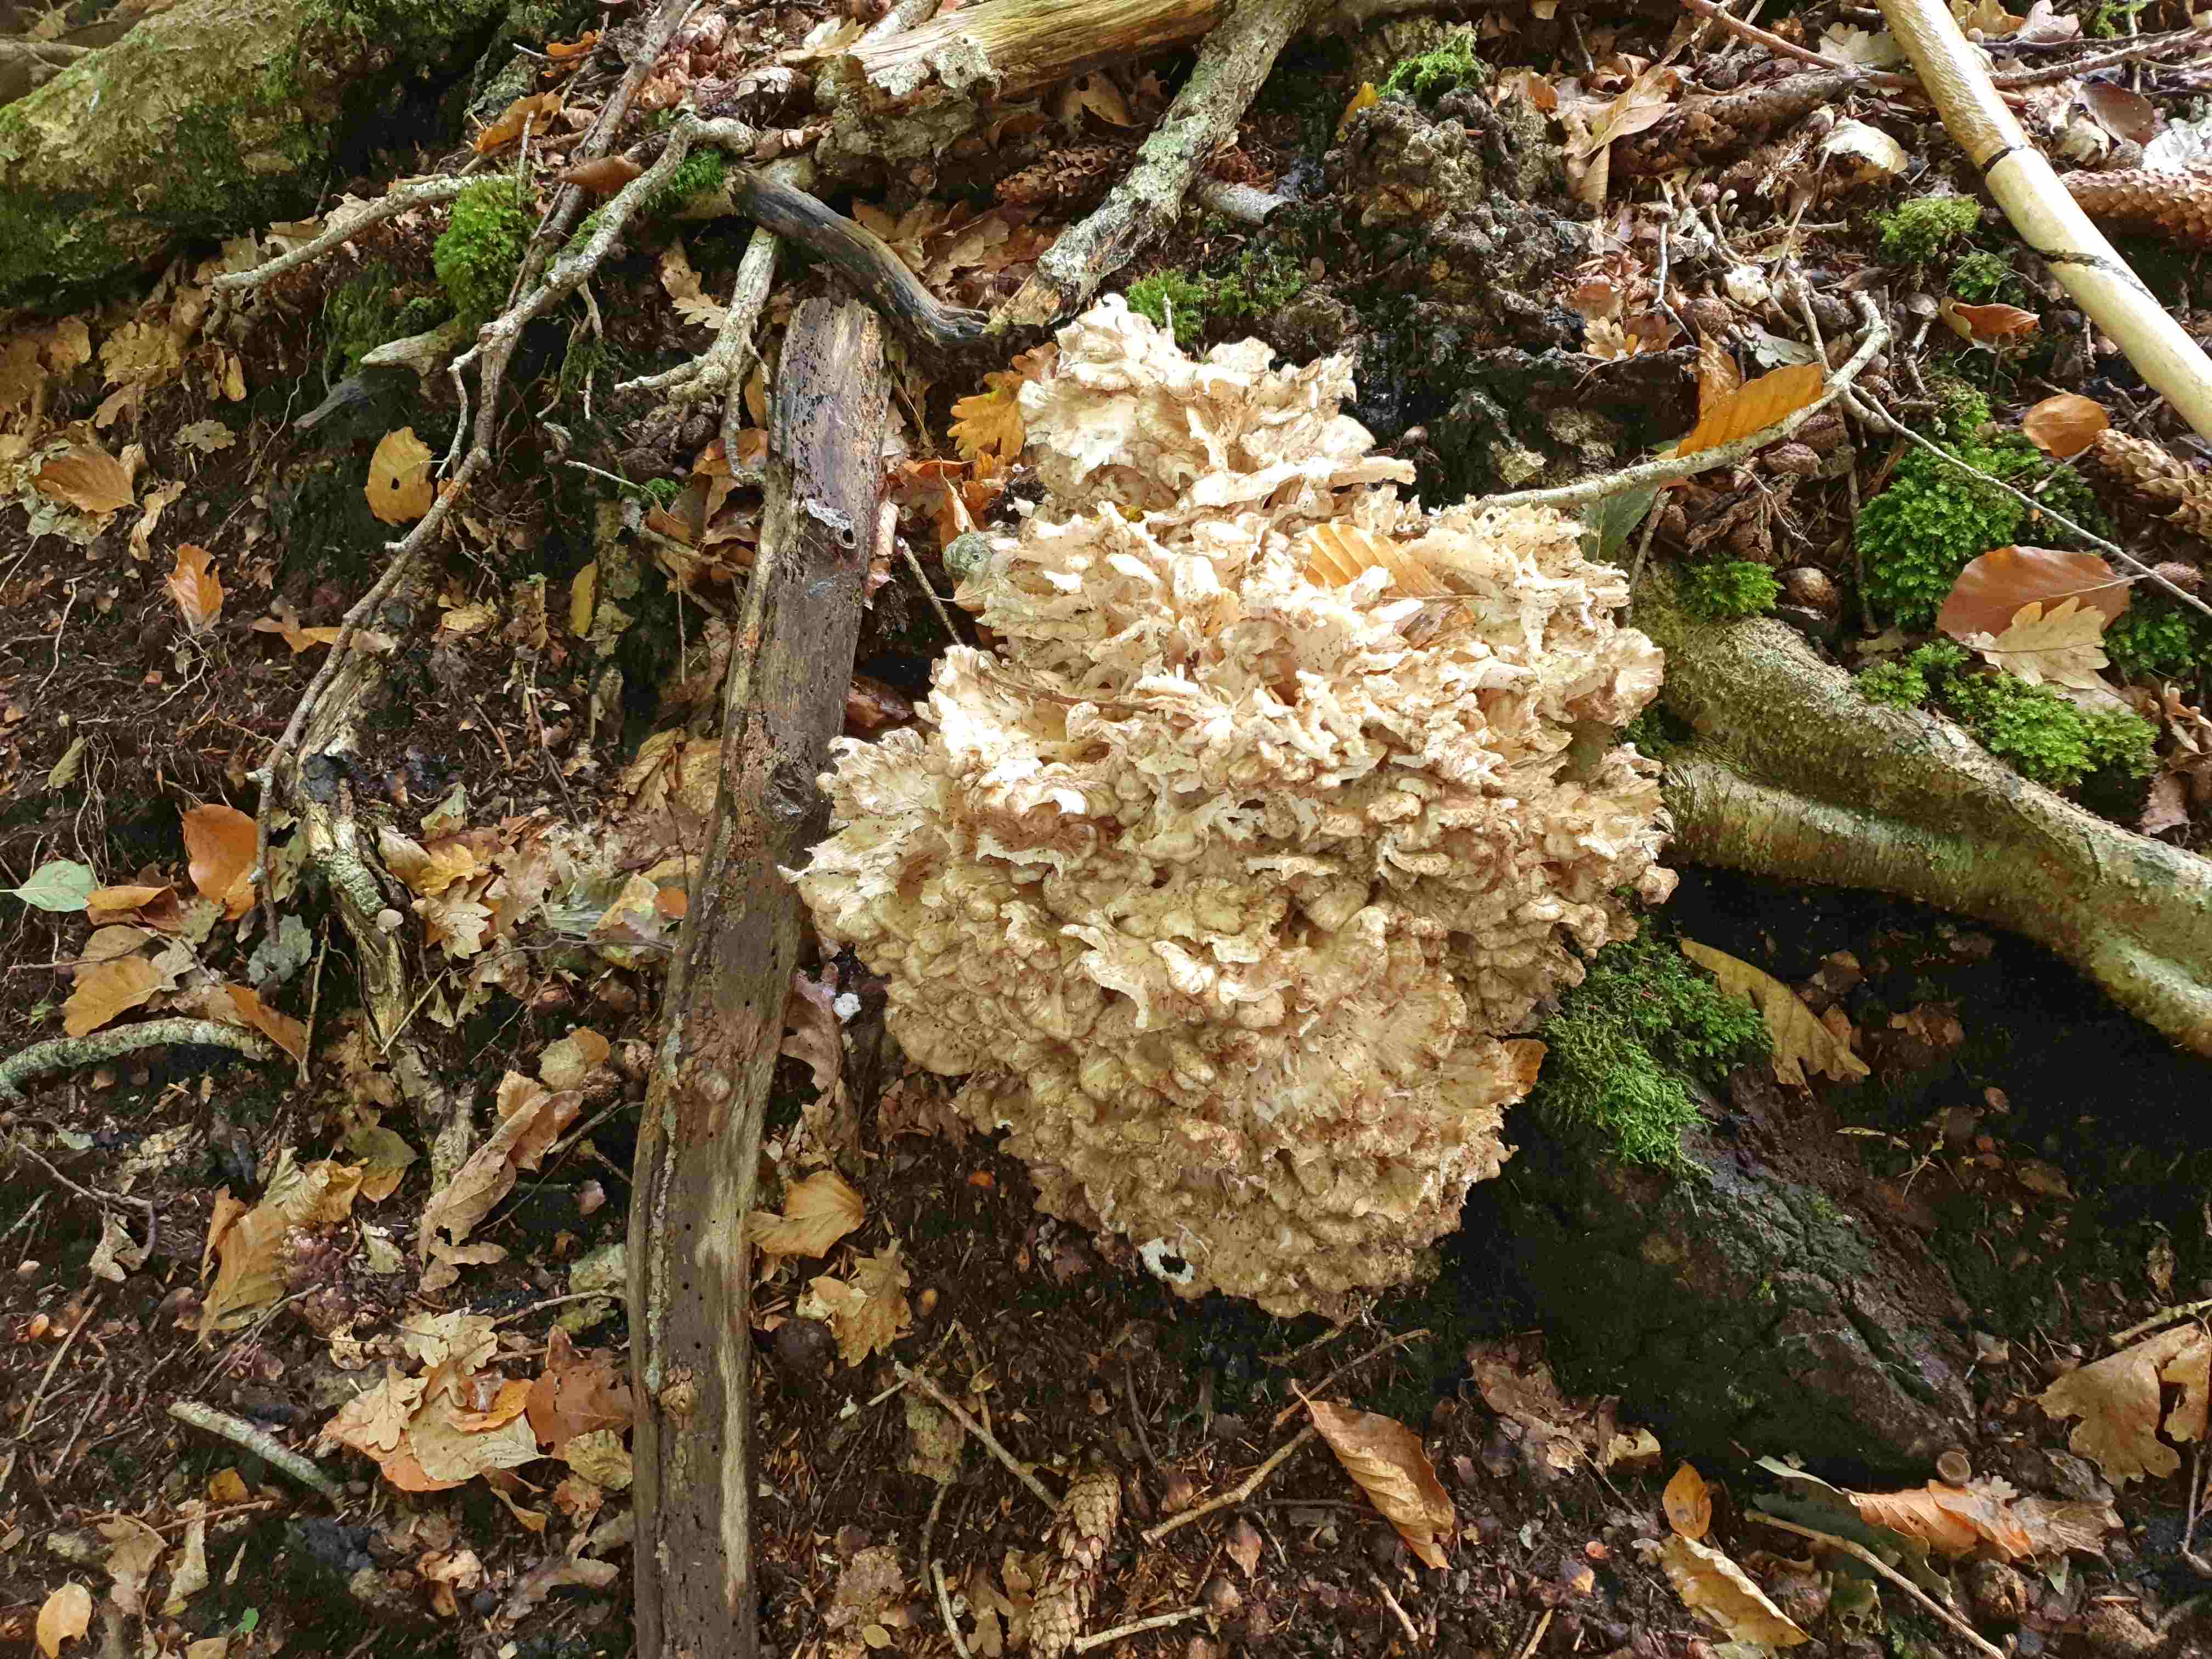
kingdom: Fungi
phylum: Basidiomycota
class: Agaricomycetes
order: Polyporales
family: Grifolaceae
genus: Grifola
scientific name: Grifola frondosa
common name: tueporesvamp
